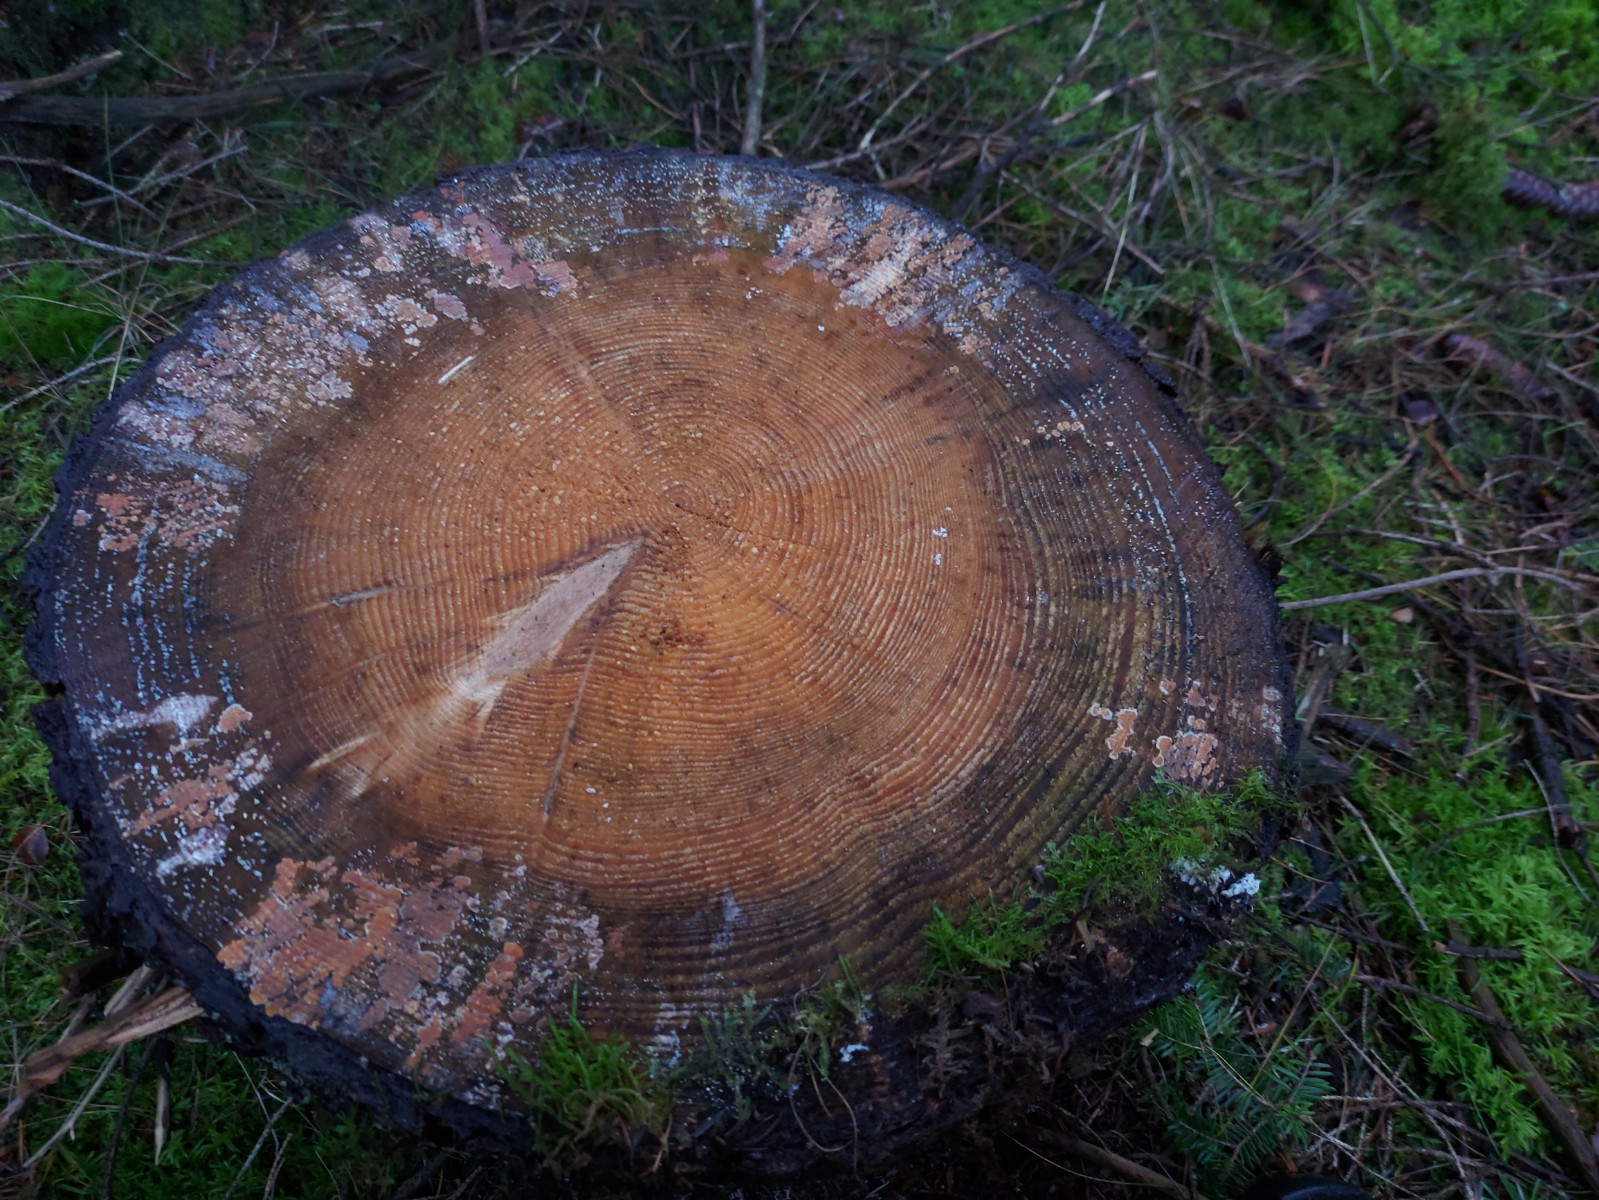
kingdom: Fungi
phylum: Basidiomycota
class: Agaricomycetes
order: Russulales
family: Peniophoraceae
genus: Peniophora
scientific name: Peniophora incarnata
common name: laksefarvet voksskind
